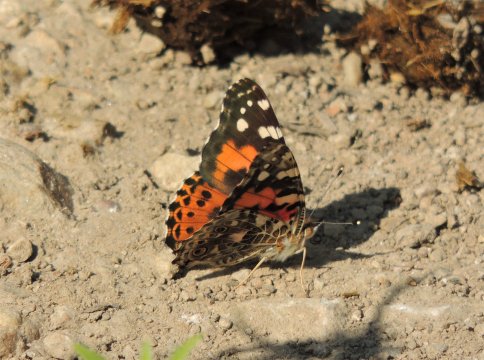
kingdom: Animalia
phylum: Arthropoda
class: Insecta
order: Lepidoptera
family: Nymphalidae
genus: Vanessa
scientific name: Vanessa cardui
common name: Painted Lady
